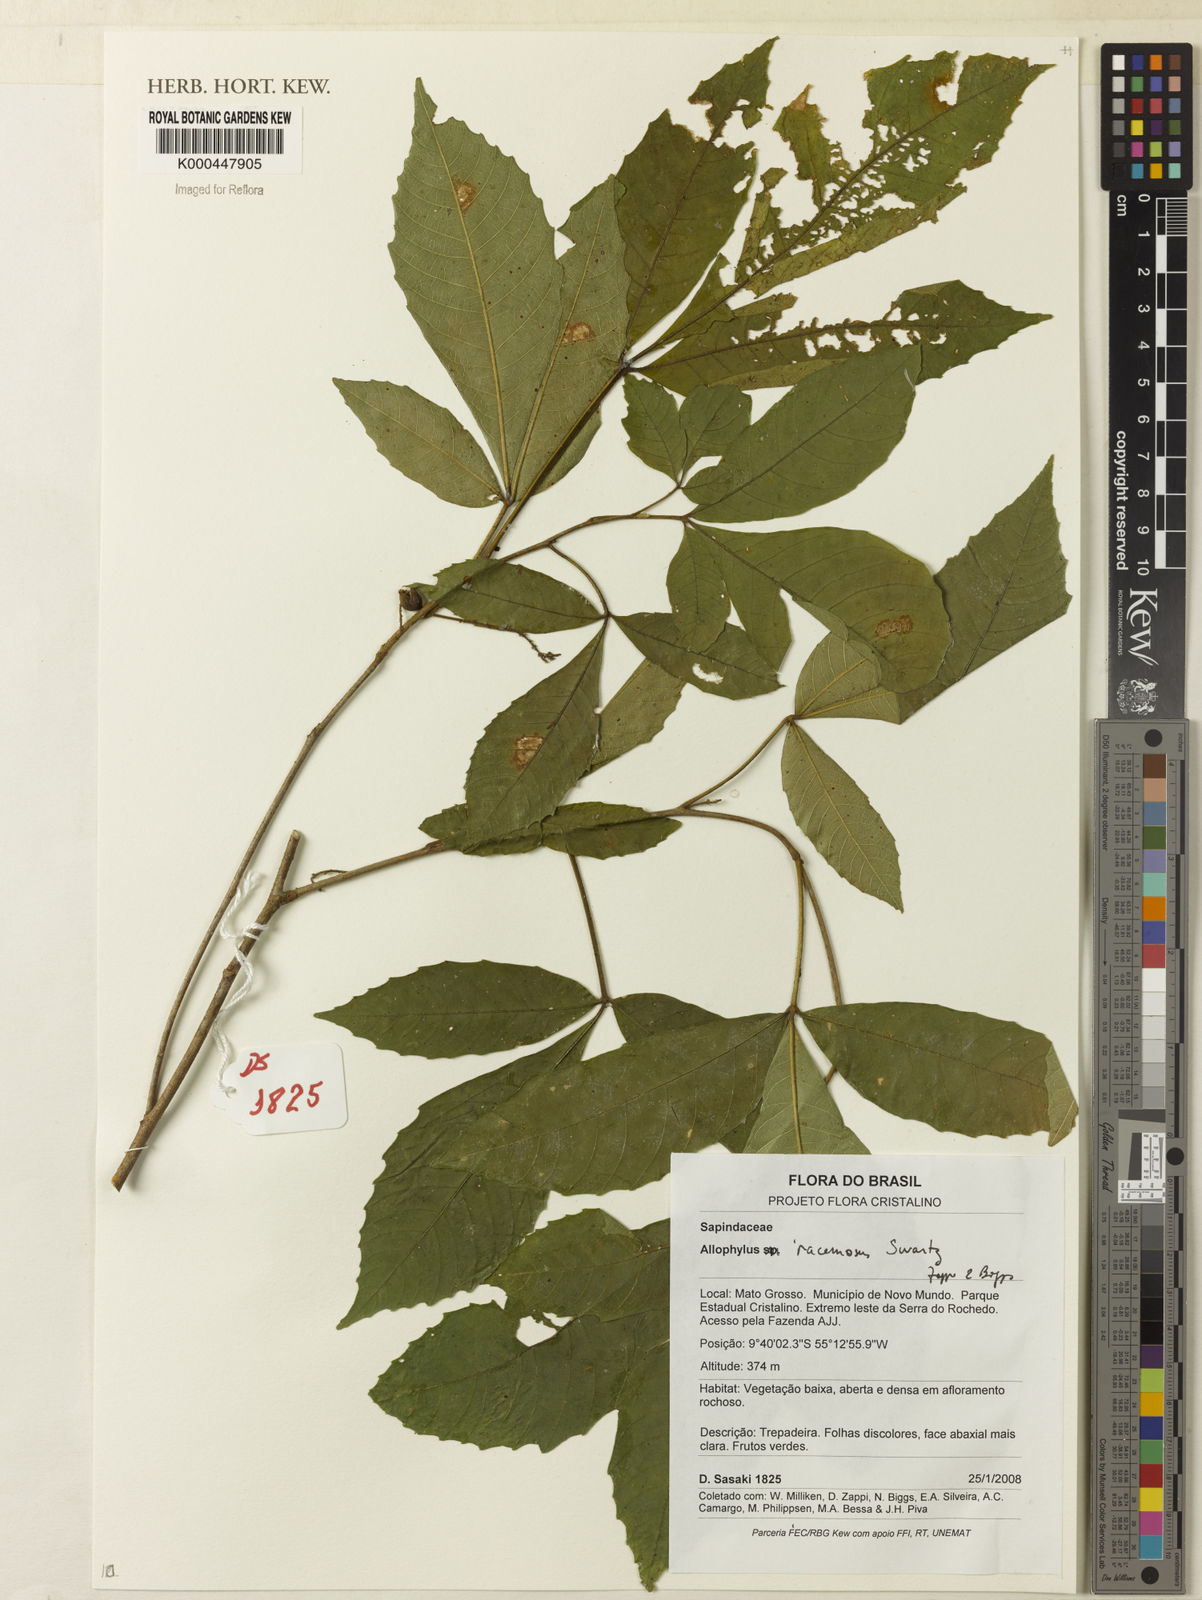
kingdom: Plantae
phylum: Tracheophyta
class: Magnoliopsida
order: Sapindales
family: Sapindaceae
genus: Allophylus
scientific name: Allophylus racemosus
